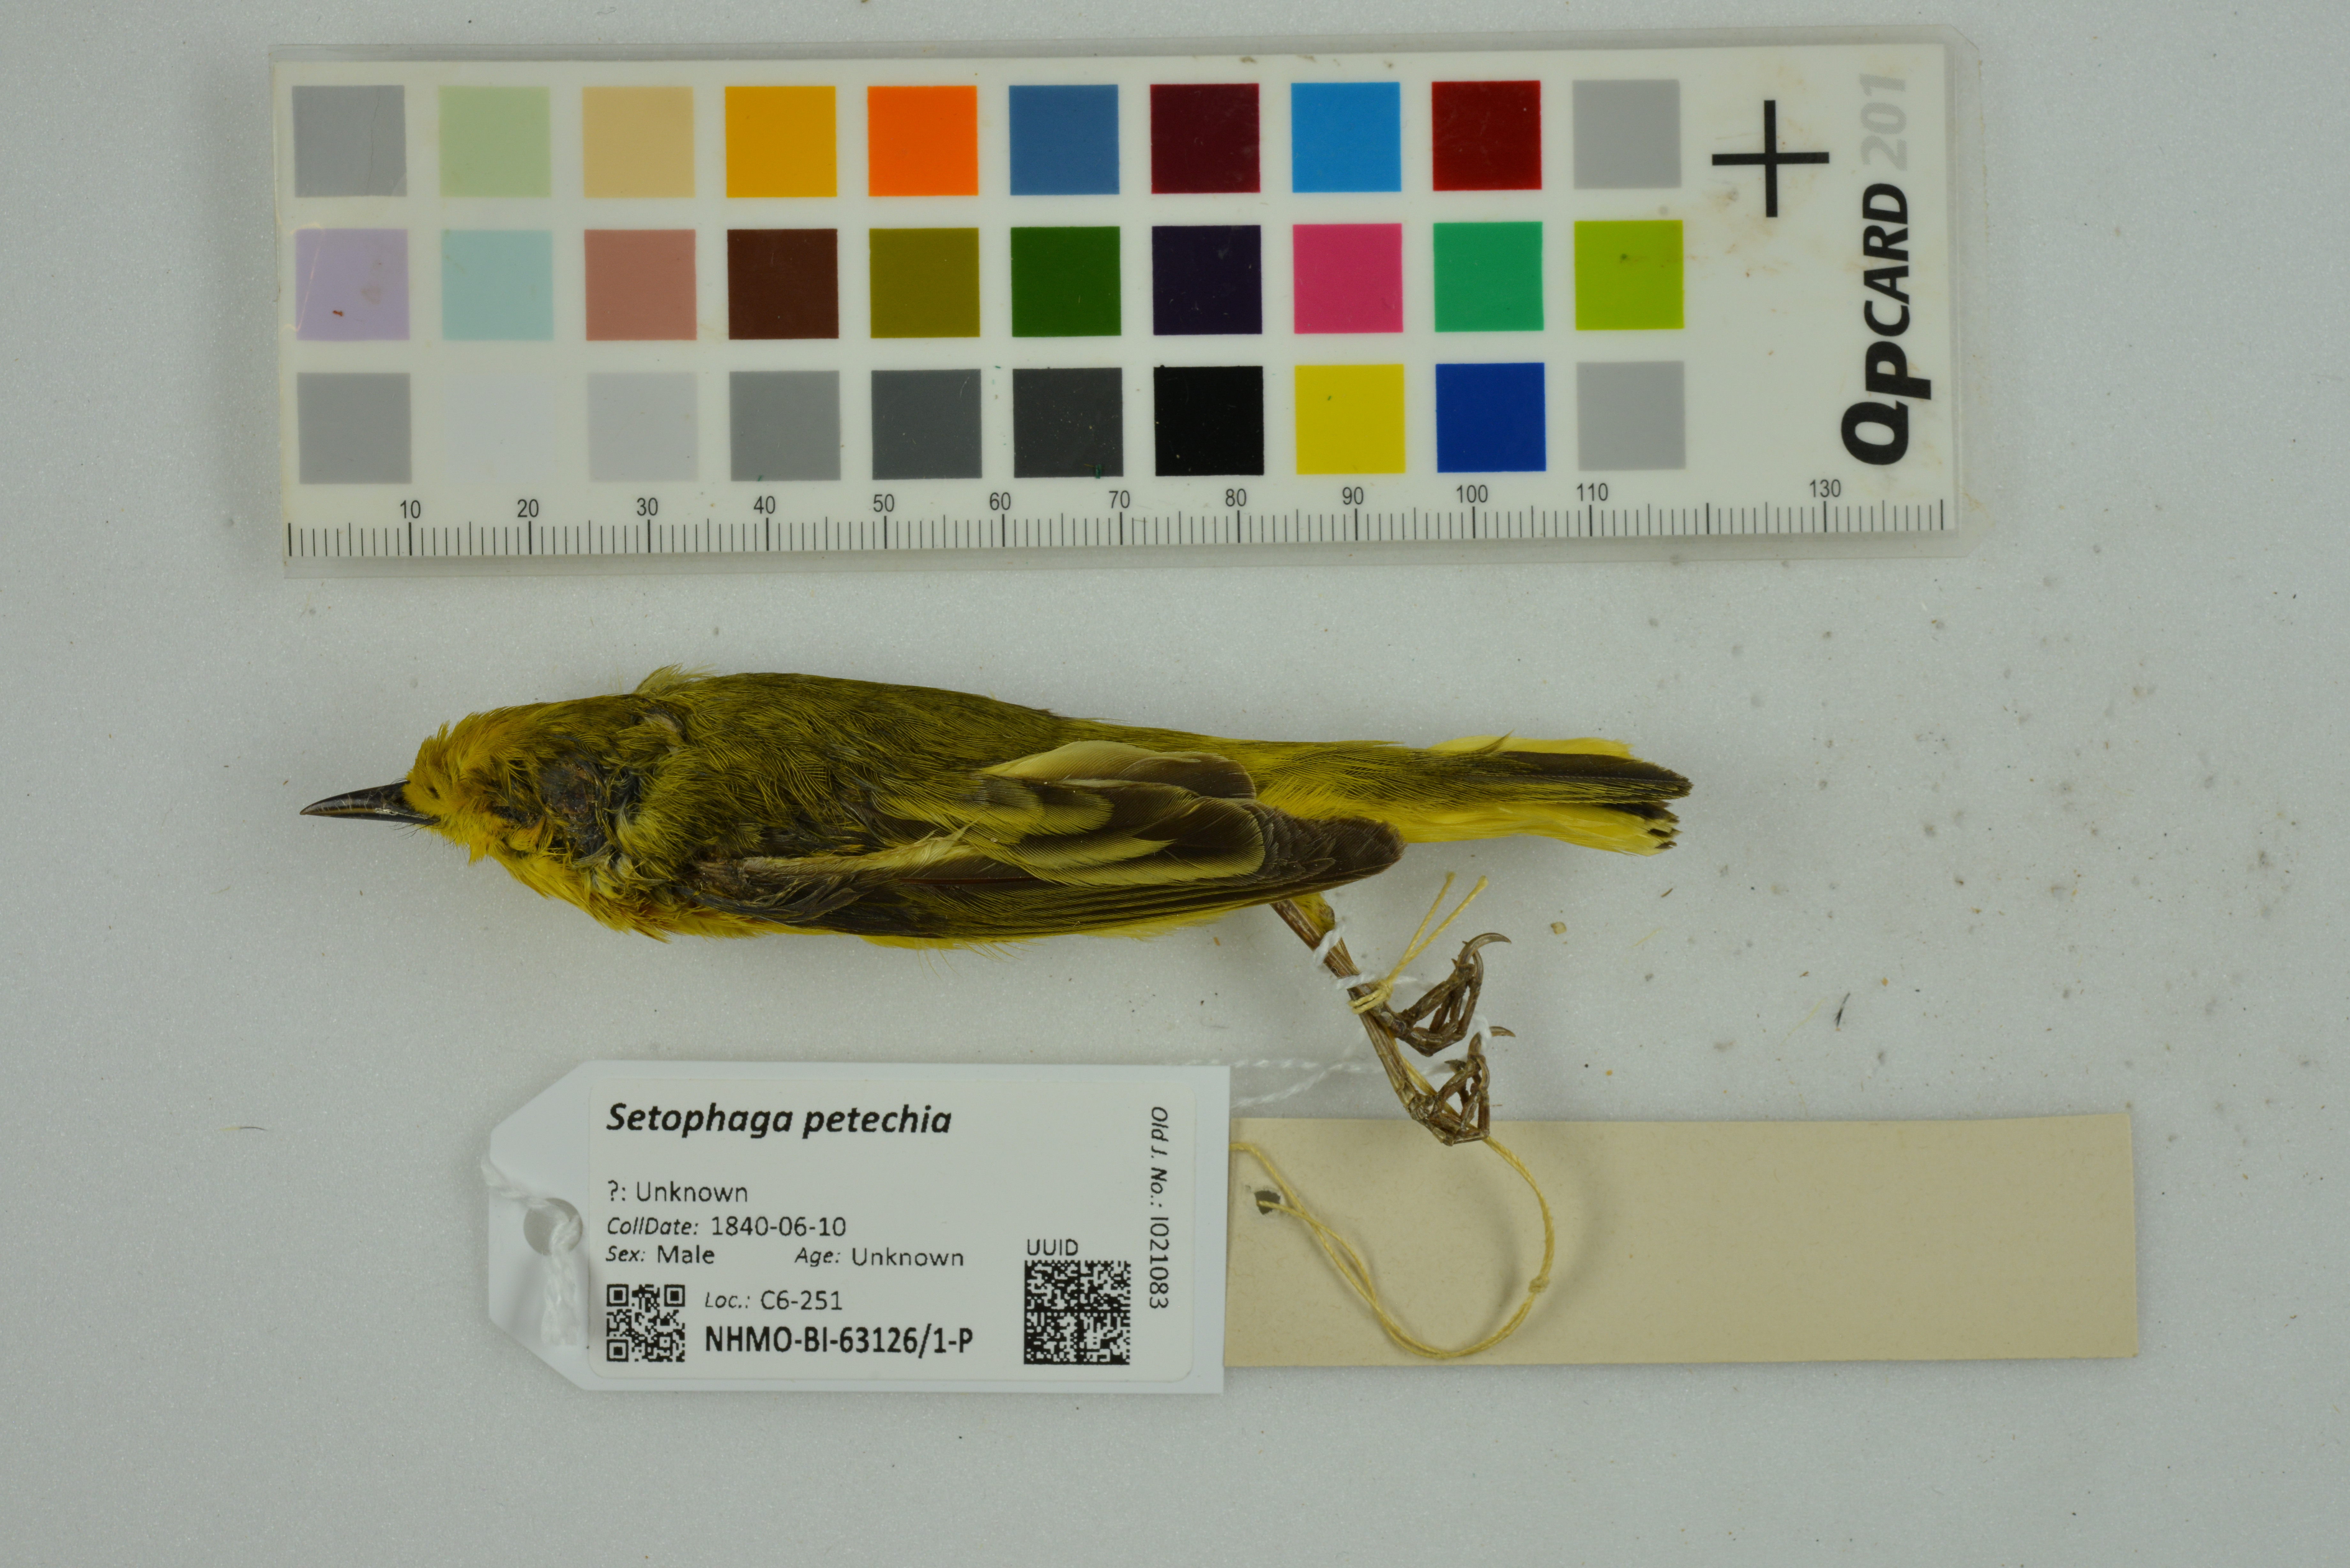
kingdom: Animalia
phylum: Chordata
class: Aves
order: Passeriformes
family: Parulidae
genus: Setophaga
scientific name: Setophaga petechia
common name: Yellow warbler
